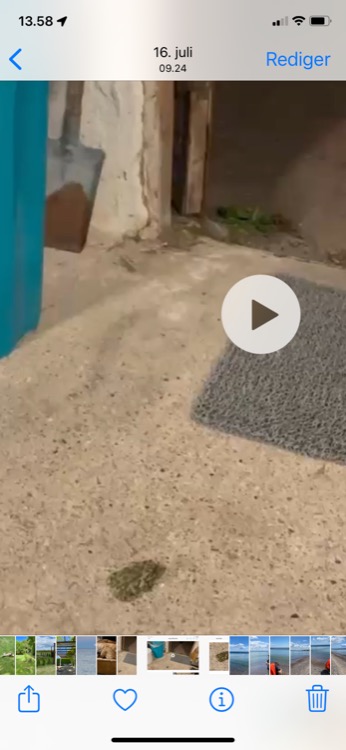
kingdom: Animalia
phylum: Chordata
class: Amphibia
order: Anura
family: Bufonidae
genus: Bufotes
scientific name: Bufotes viridis
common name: Grønbroget tudse
